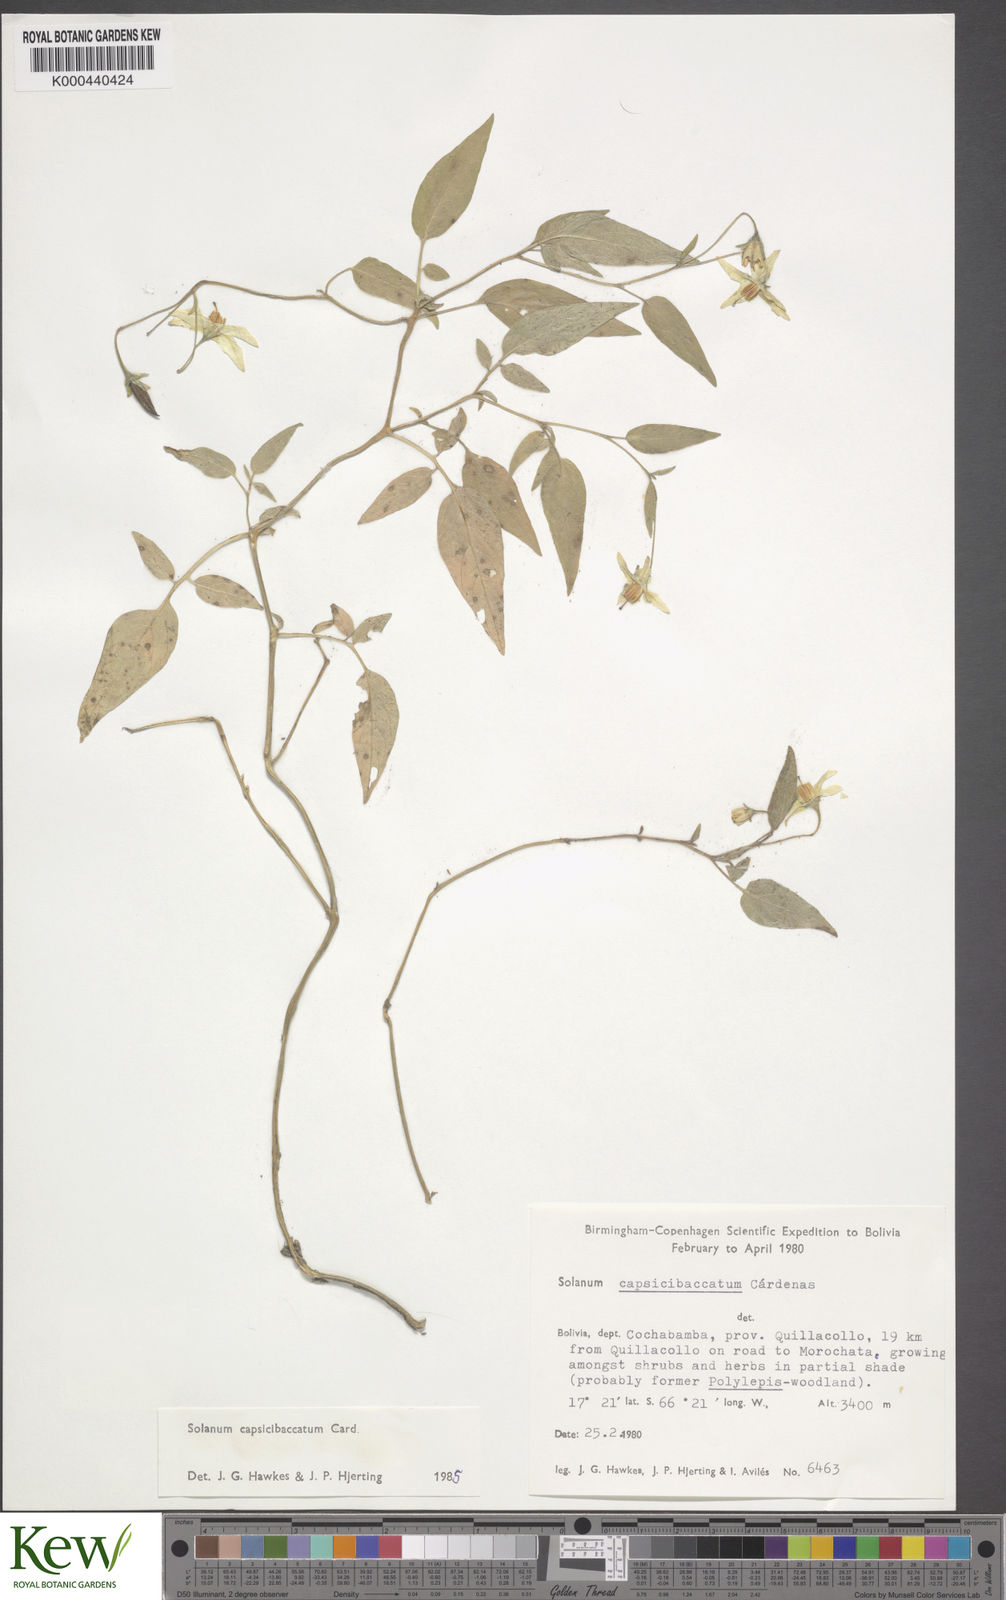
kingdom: Plantae
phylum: Tracheophyta
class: Magnoliopsida
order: Solanales
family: Solanaceae
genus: Solanum
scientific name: Solanum stipuloideum
